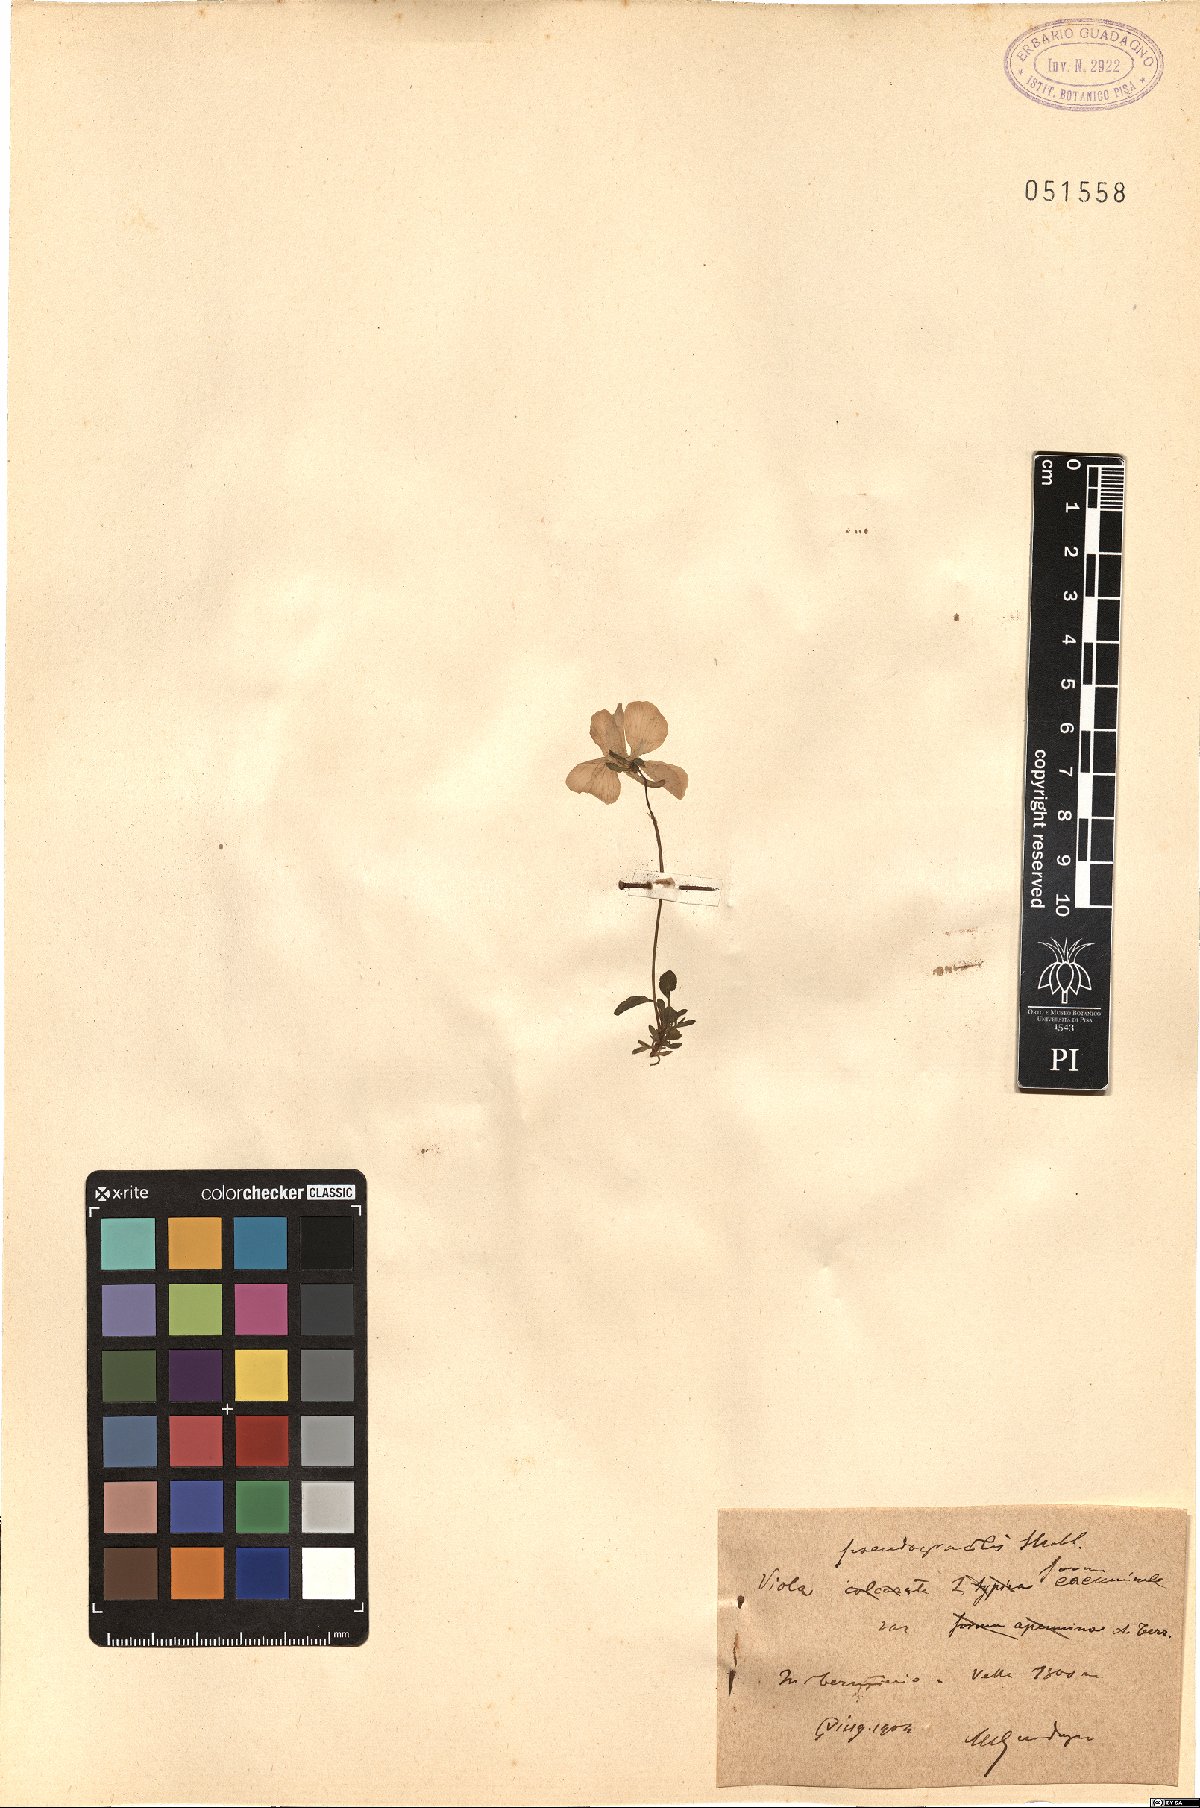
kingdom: Plantae
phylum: Tracheophyta
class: Magnoliopsida
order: Malpighiales
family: Violaceae
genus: Viola
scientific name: Viola pseudogracilis
